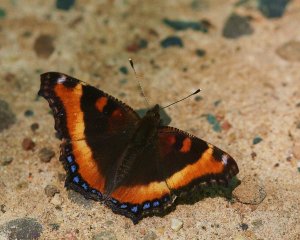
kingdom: Animalia
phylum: Arthropoda
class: Insecta
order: Lepidoptera
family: Nymphalidae
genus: Aglais
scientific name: Aglais milberti
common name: Milbert's Tortoiseshell
